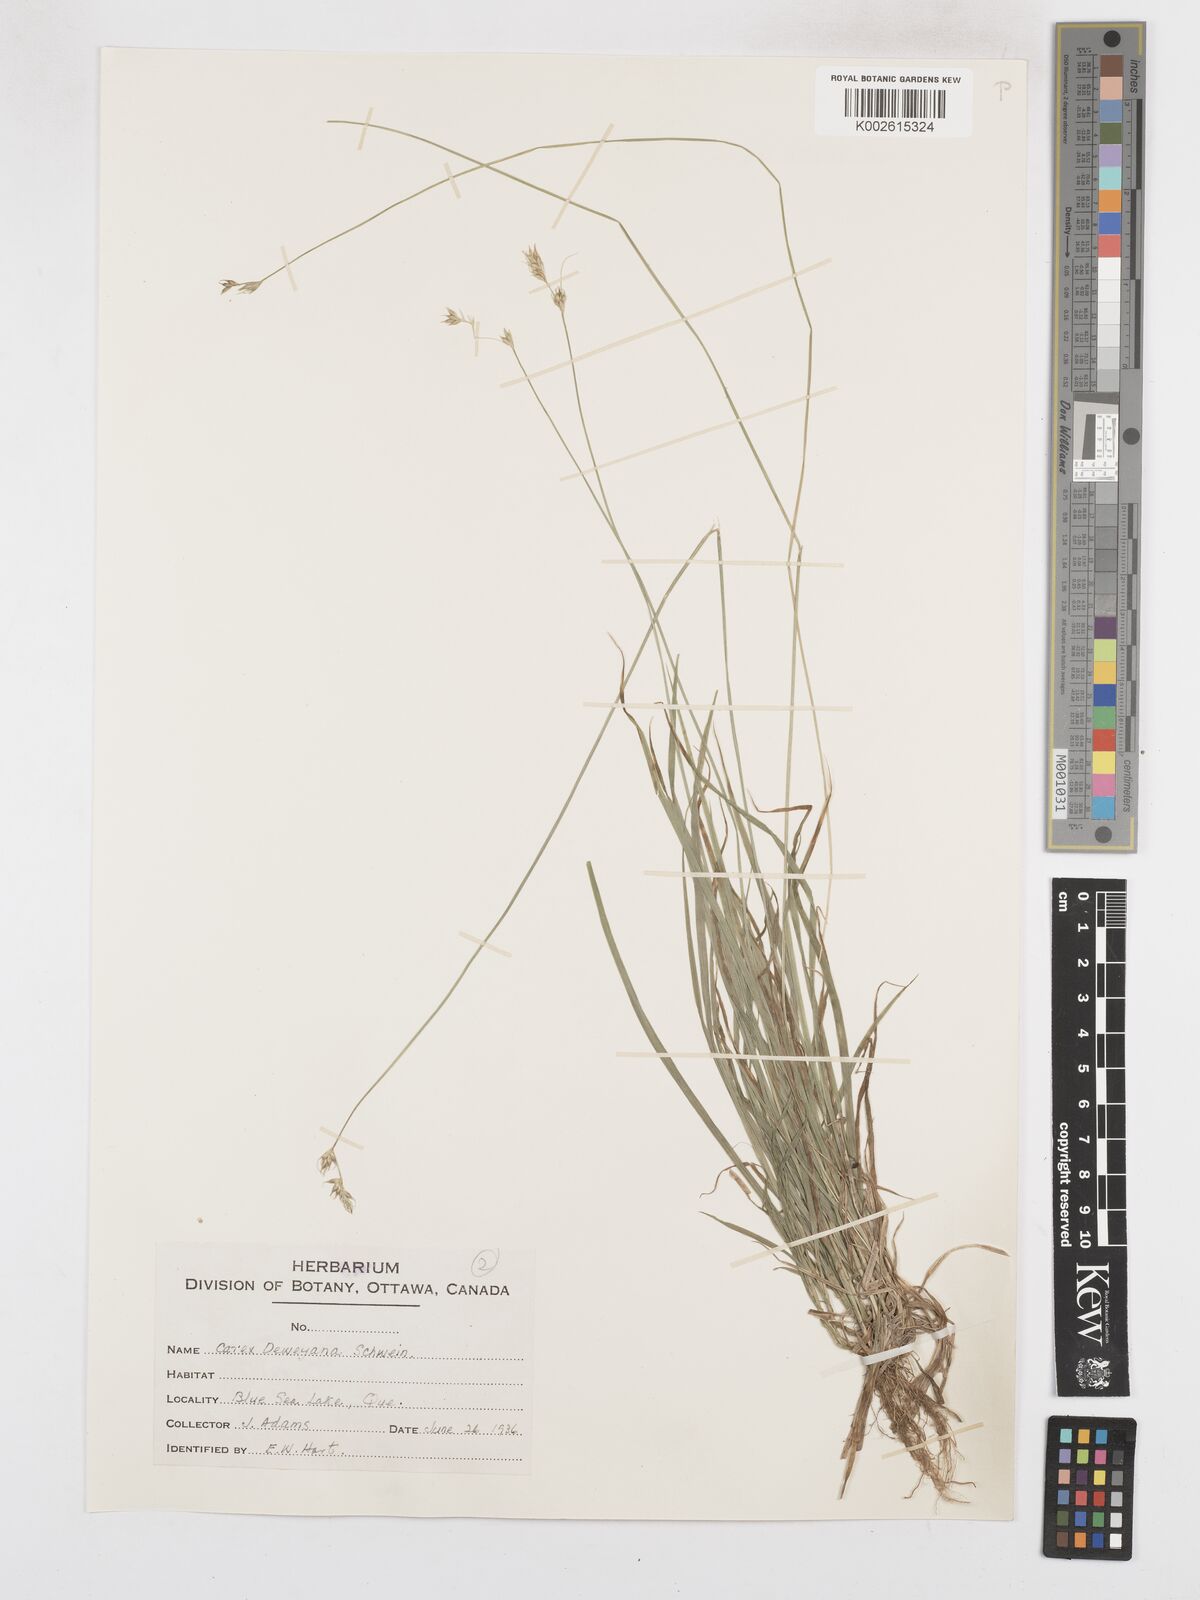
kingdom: Plantae
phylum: Tracheophyta
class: Liliopsida
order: Poales
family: Cyperaceae
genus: Carex
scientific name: Carex deweyana
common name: Dewey's sedge
